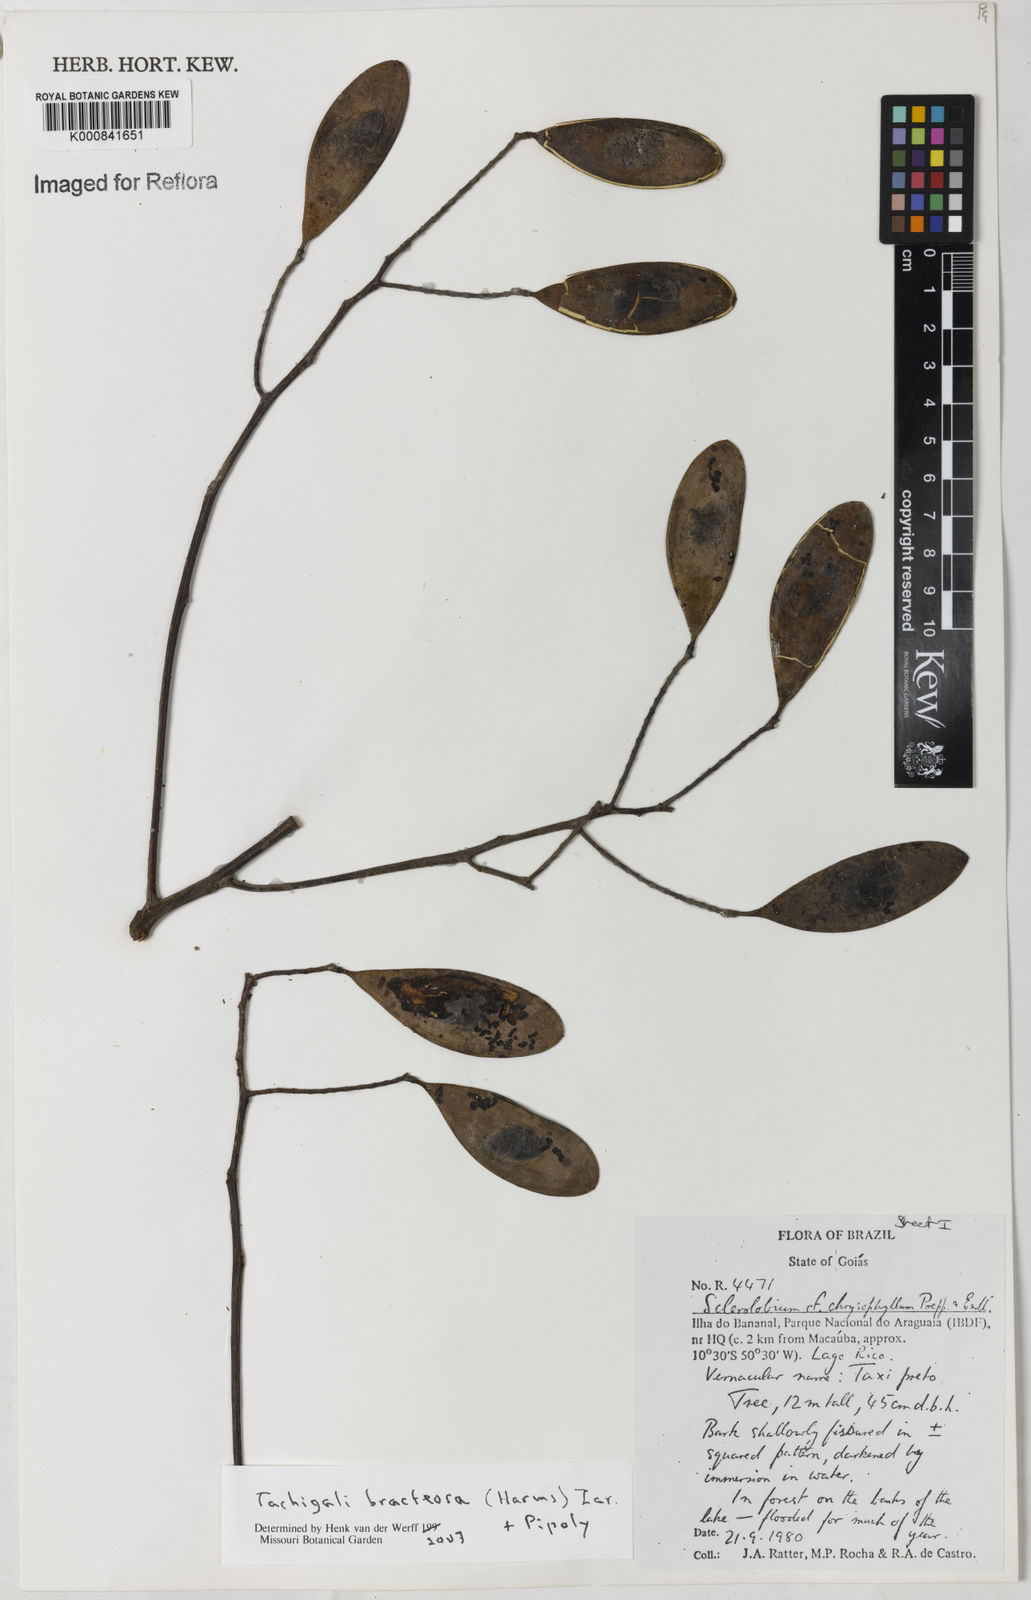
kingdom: Plantae
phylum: Tracheophyta
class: Magnoliopsida
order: Fabales
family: Fabaceae
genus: Tachigali
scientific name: Tachigali bracteosa
